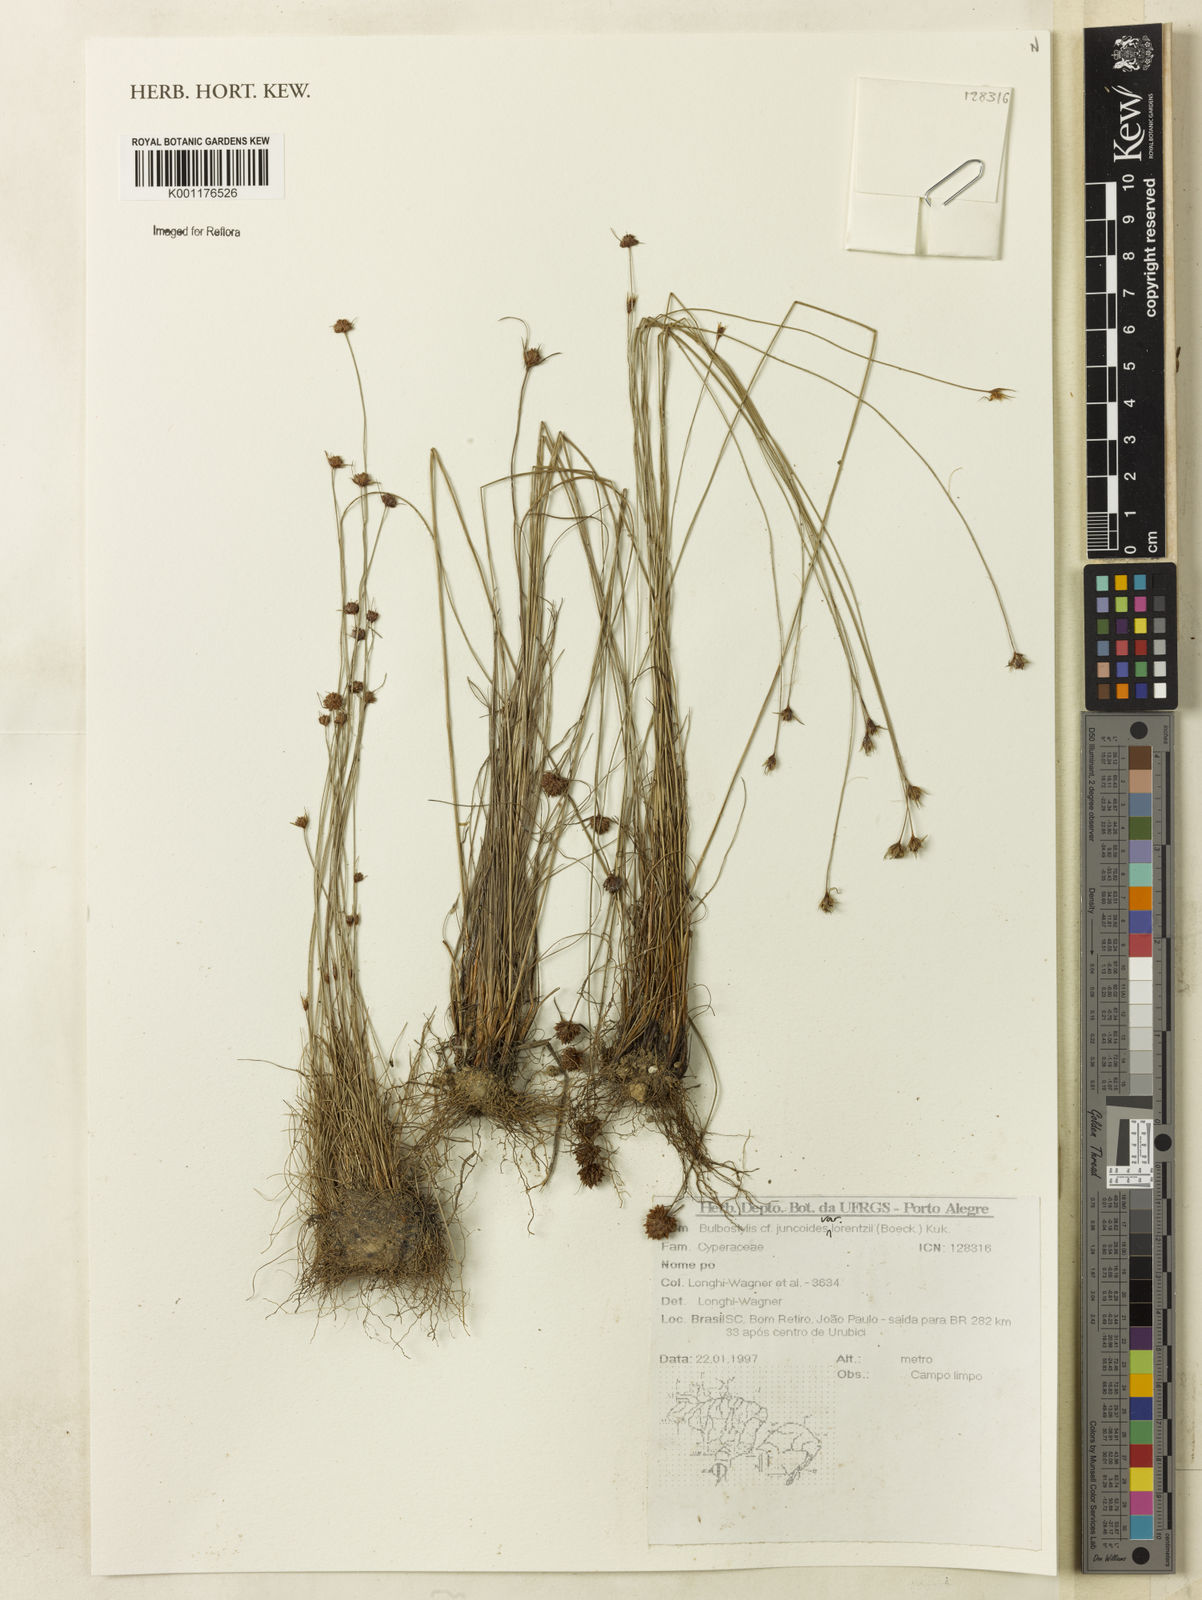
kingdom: Plantae
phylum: Tracheophyta
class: Liliopsida
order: Poales
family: Cyperaceae
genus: Bulbostylis
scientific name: Bulbostylis juncoides
